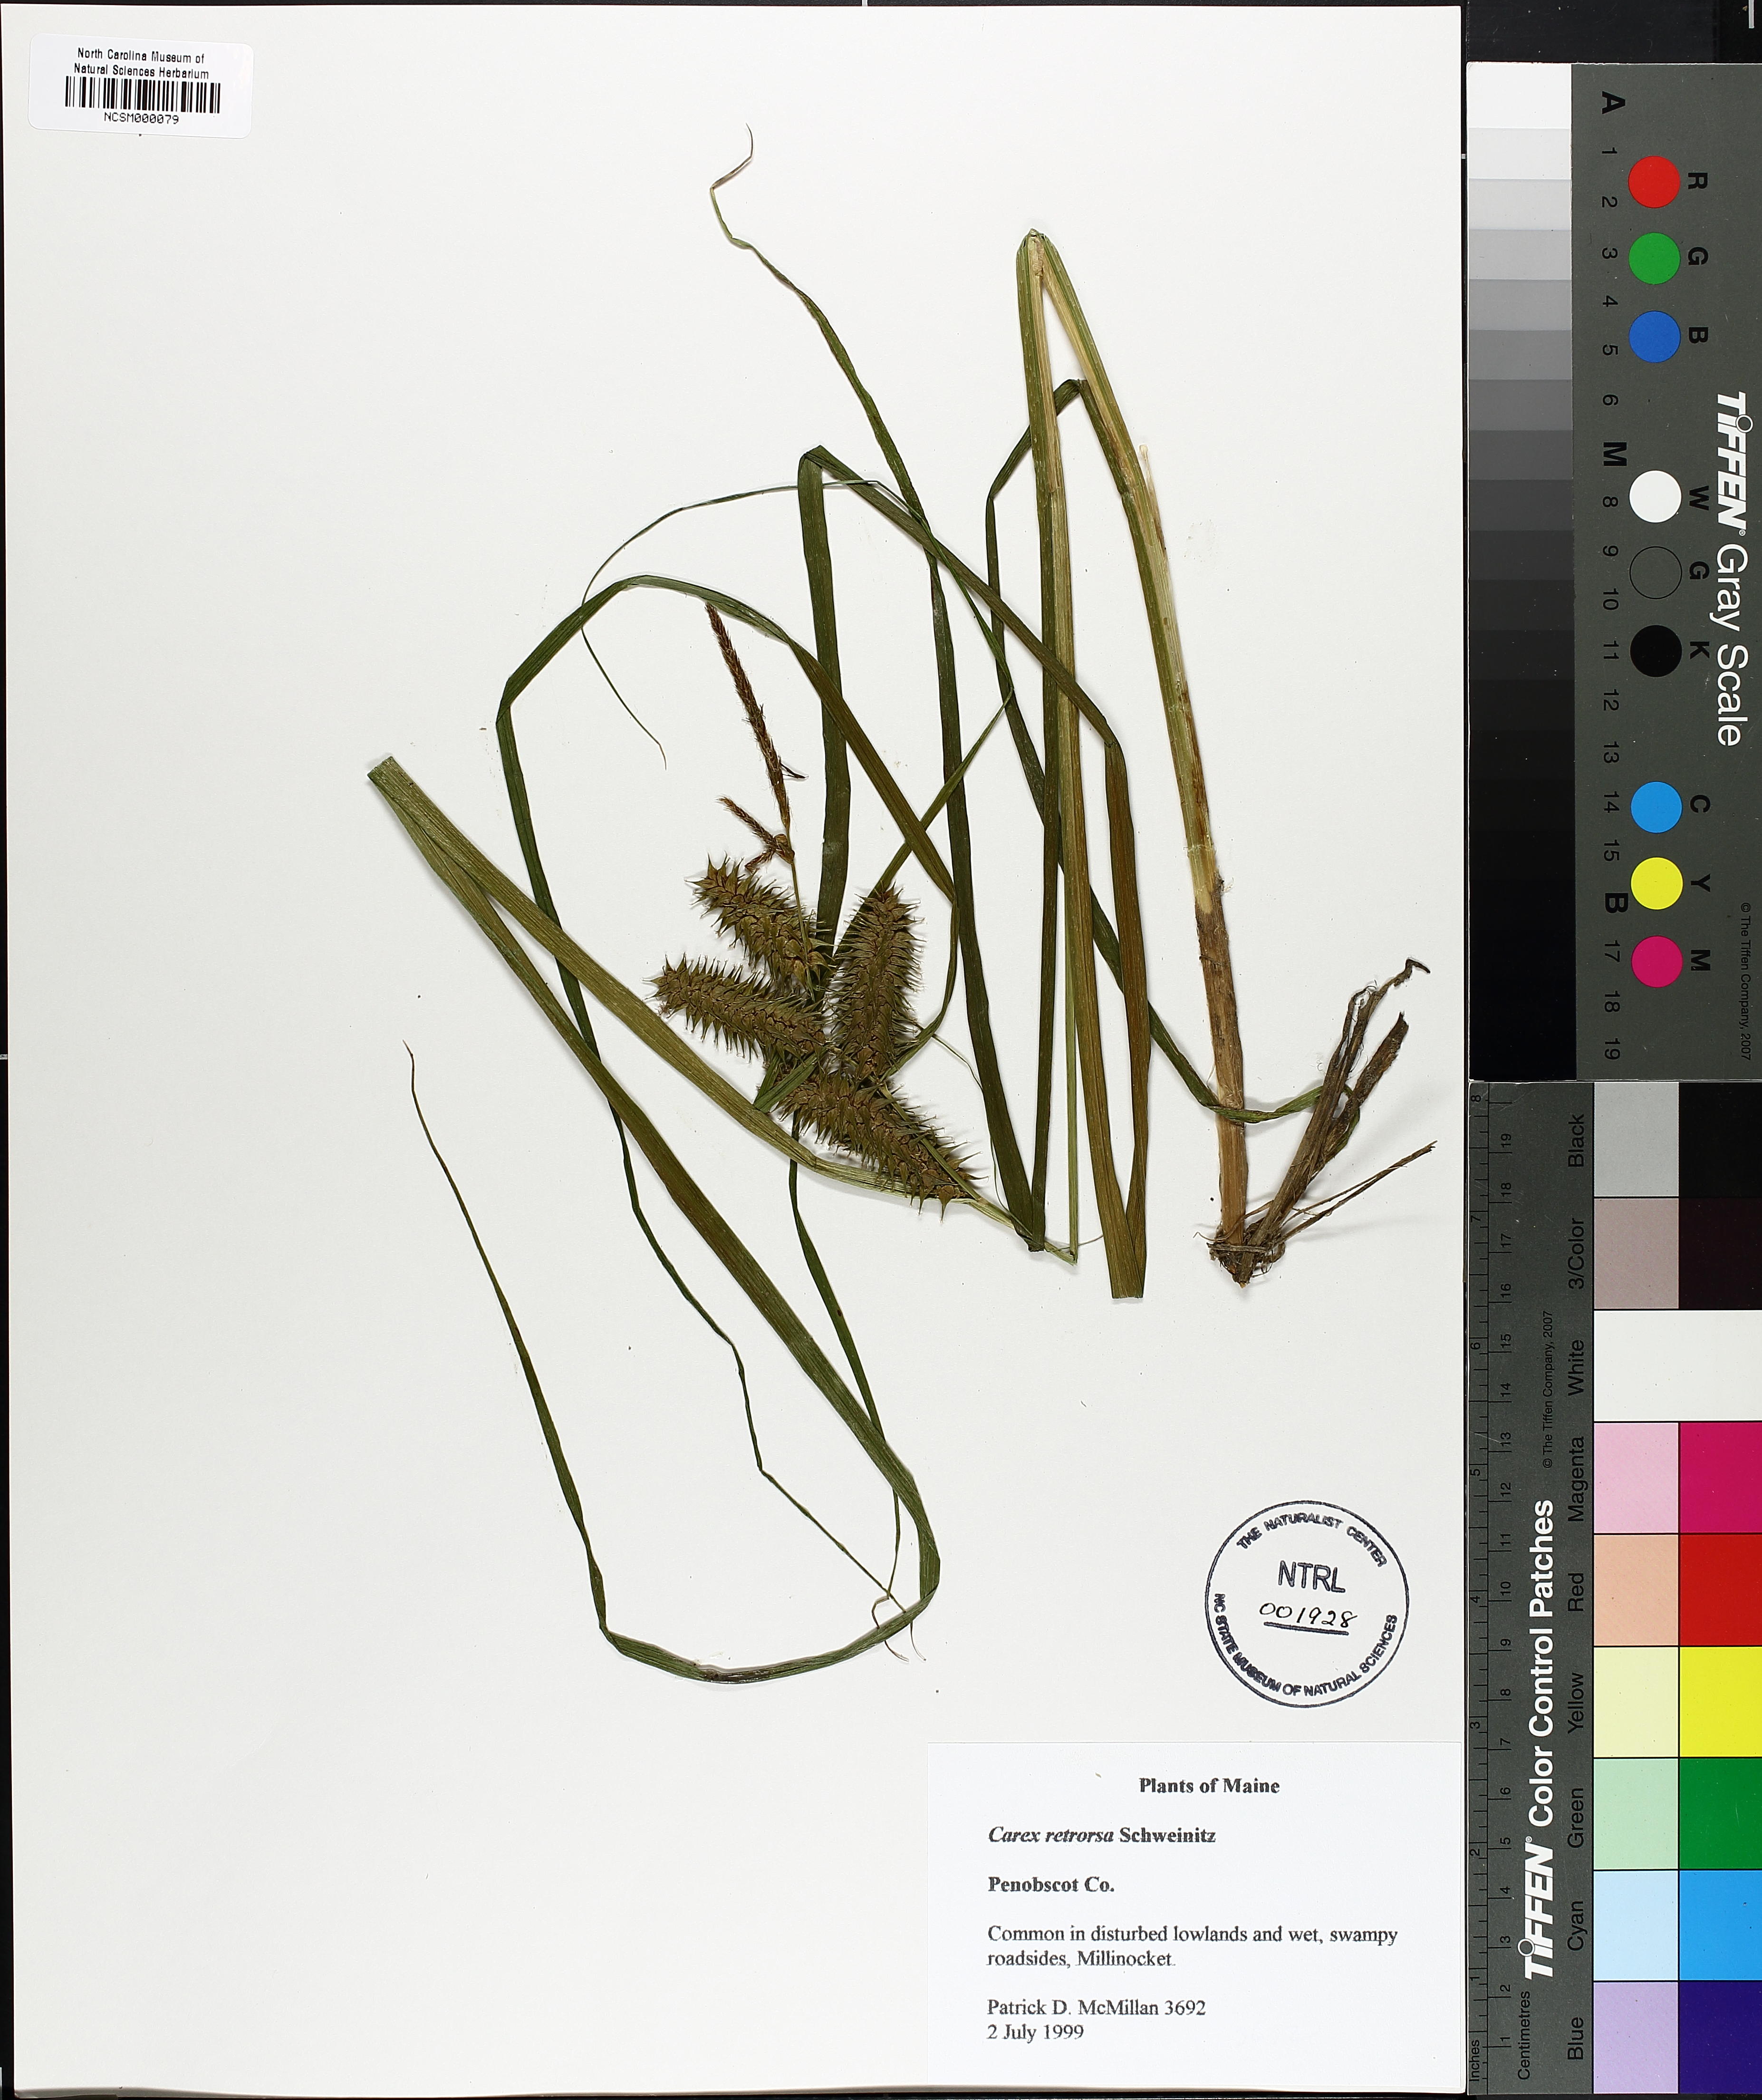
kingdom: Plantae
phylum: Tracheophyta
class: Liliopsida
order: Poales
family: Cyperaceae
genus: Carex
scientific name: Carex retrorsa
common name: Knot-sheath sedge
